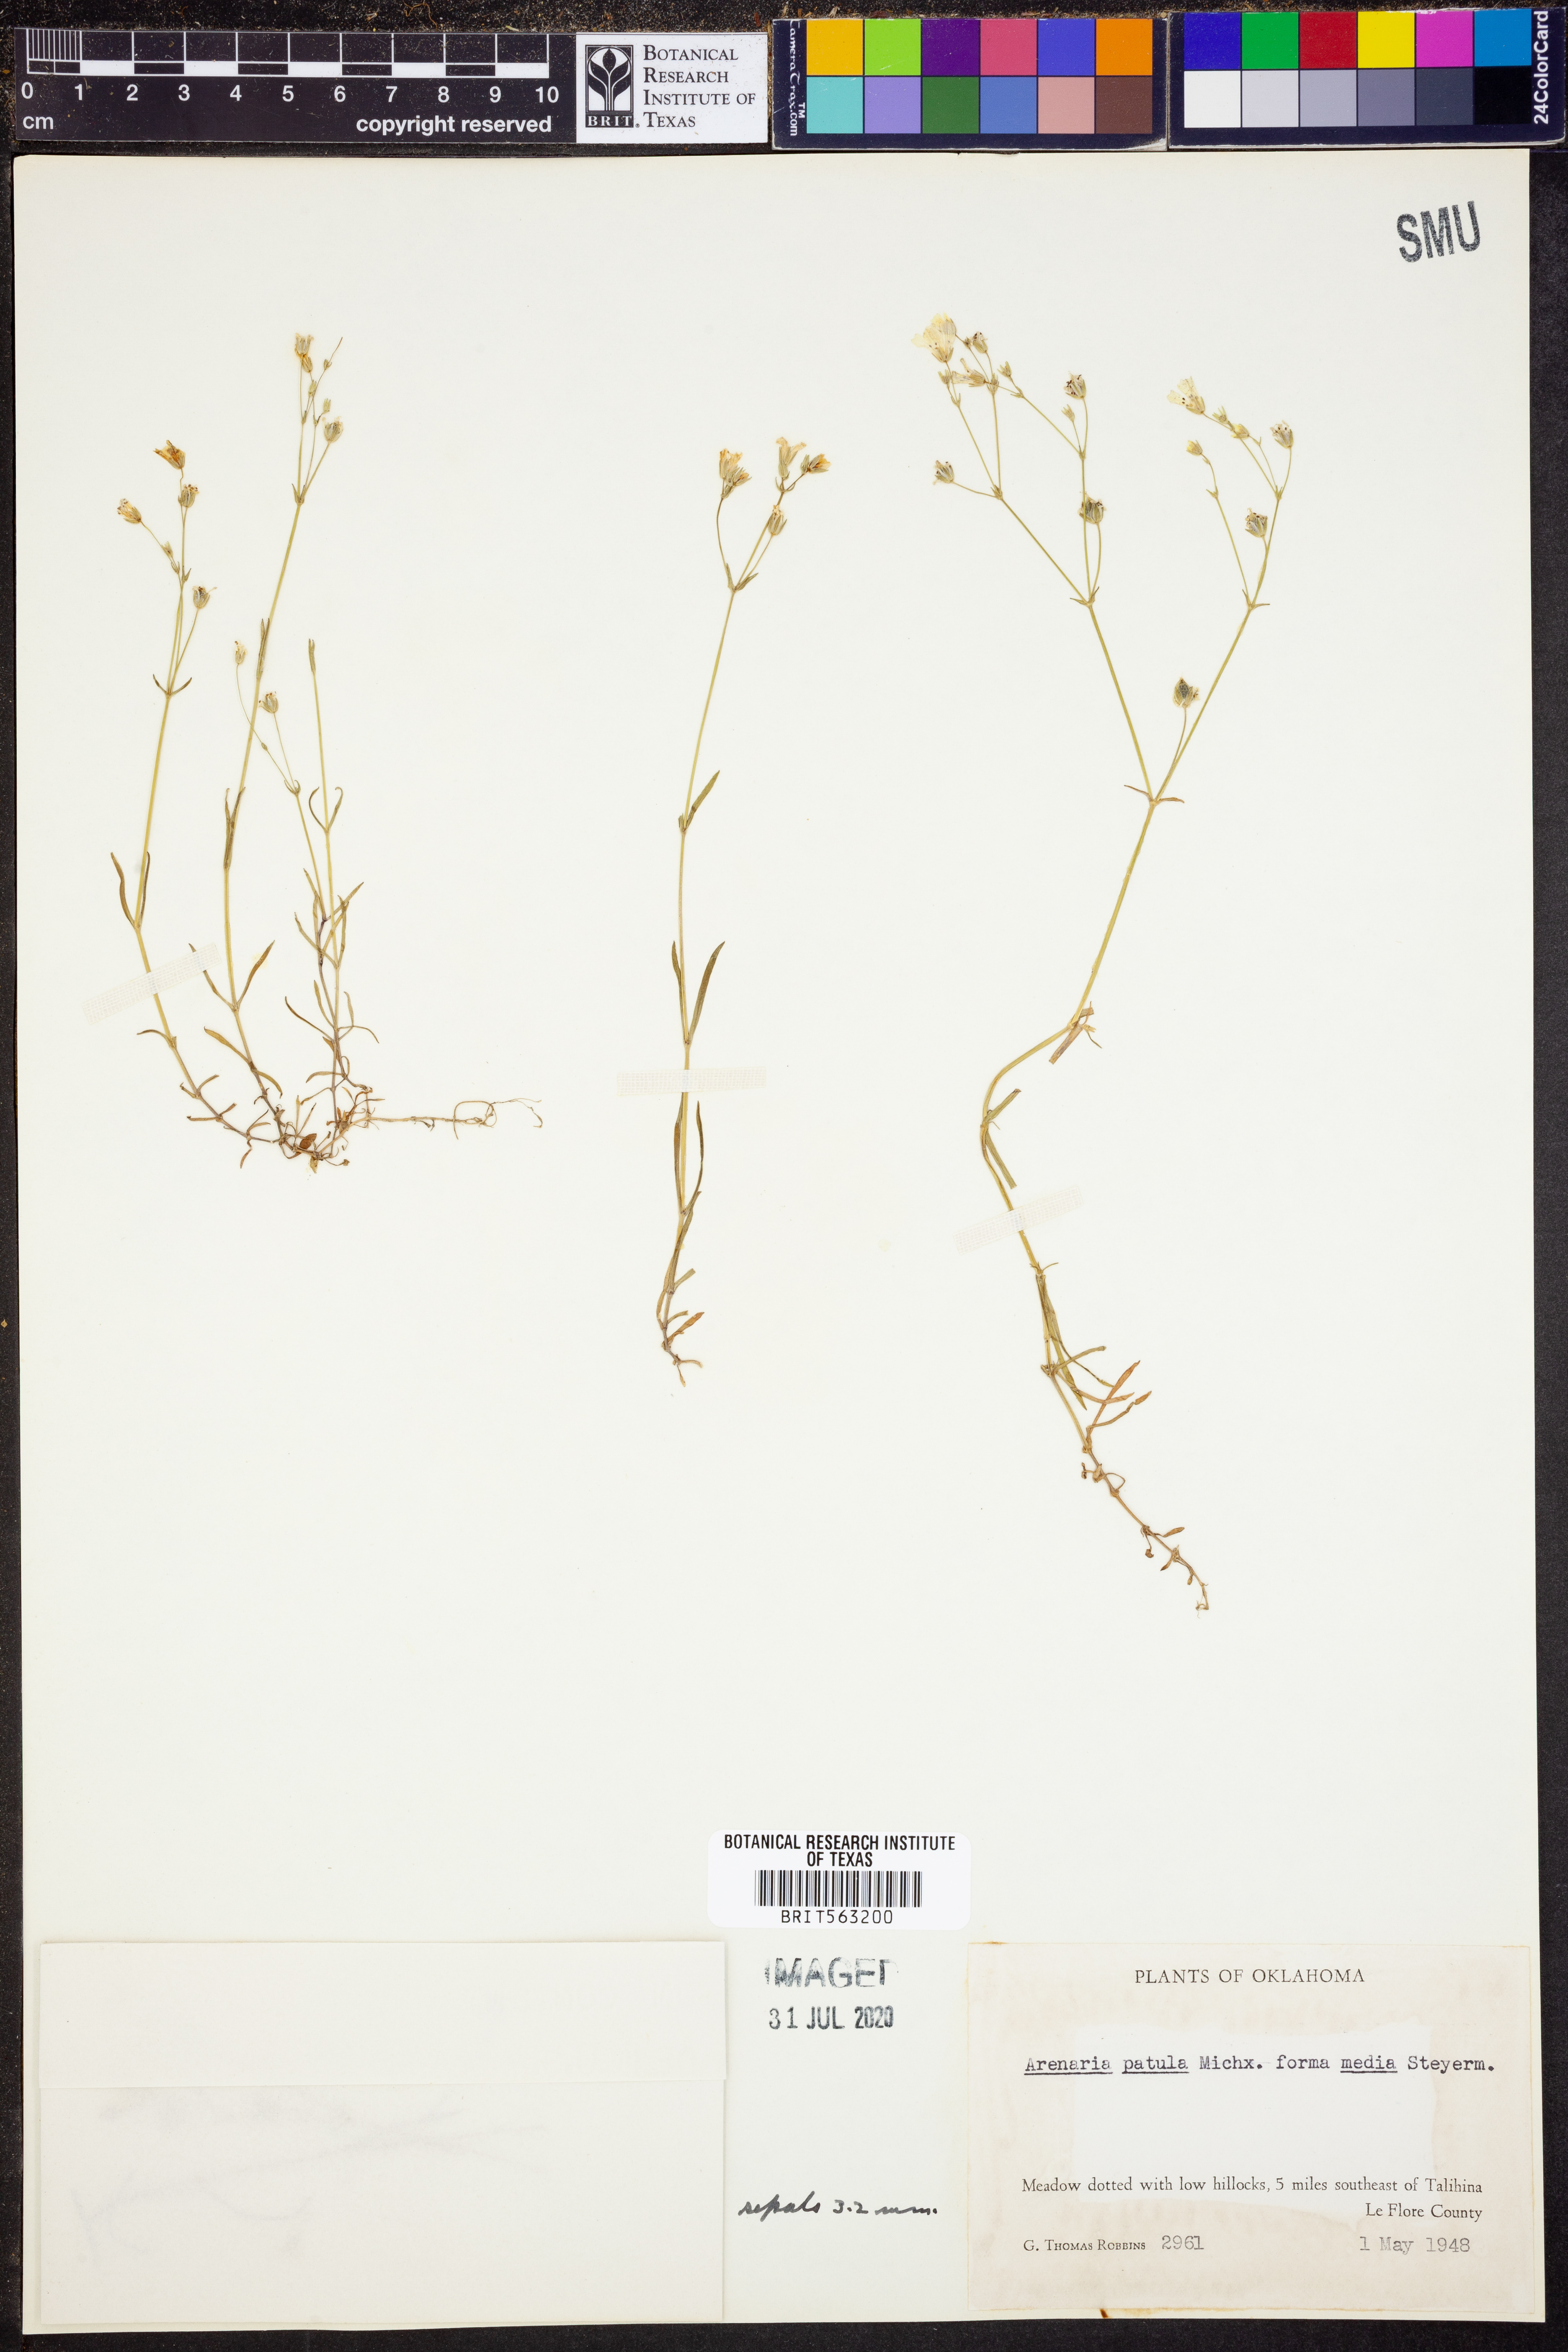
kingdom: Plantae
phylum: Tracheophyta
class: Magnoliopsida
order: Caryophyllales
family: Caryophyllaceae
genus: Mononeuria
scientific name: Mononeuria patula
